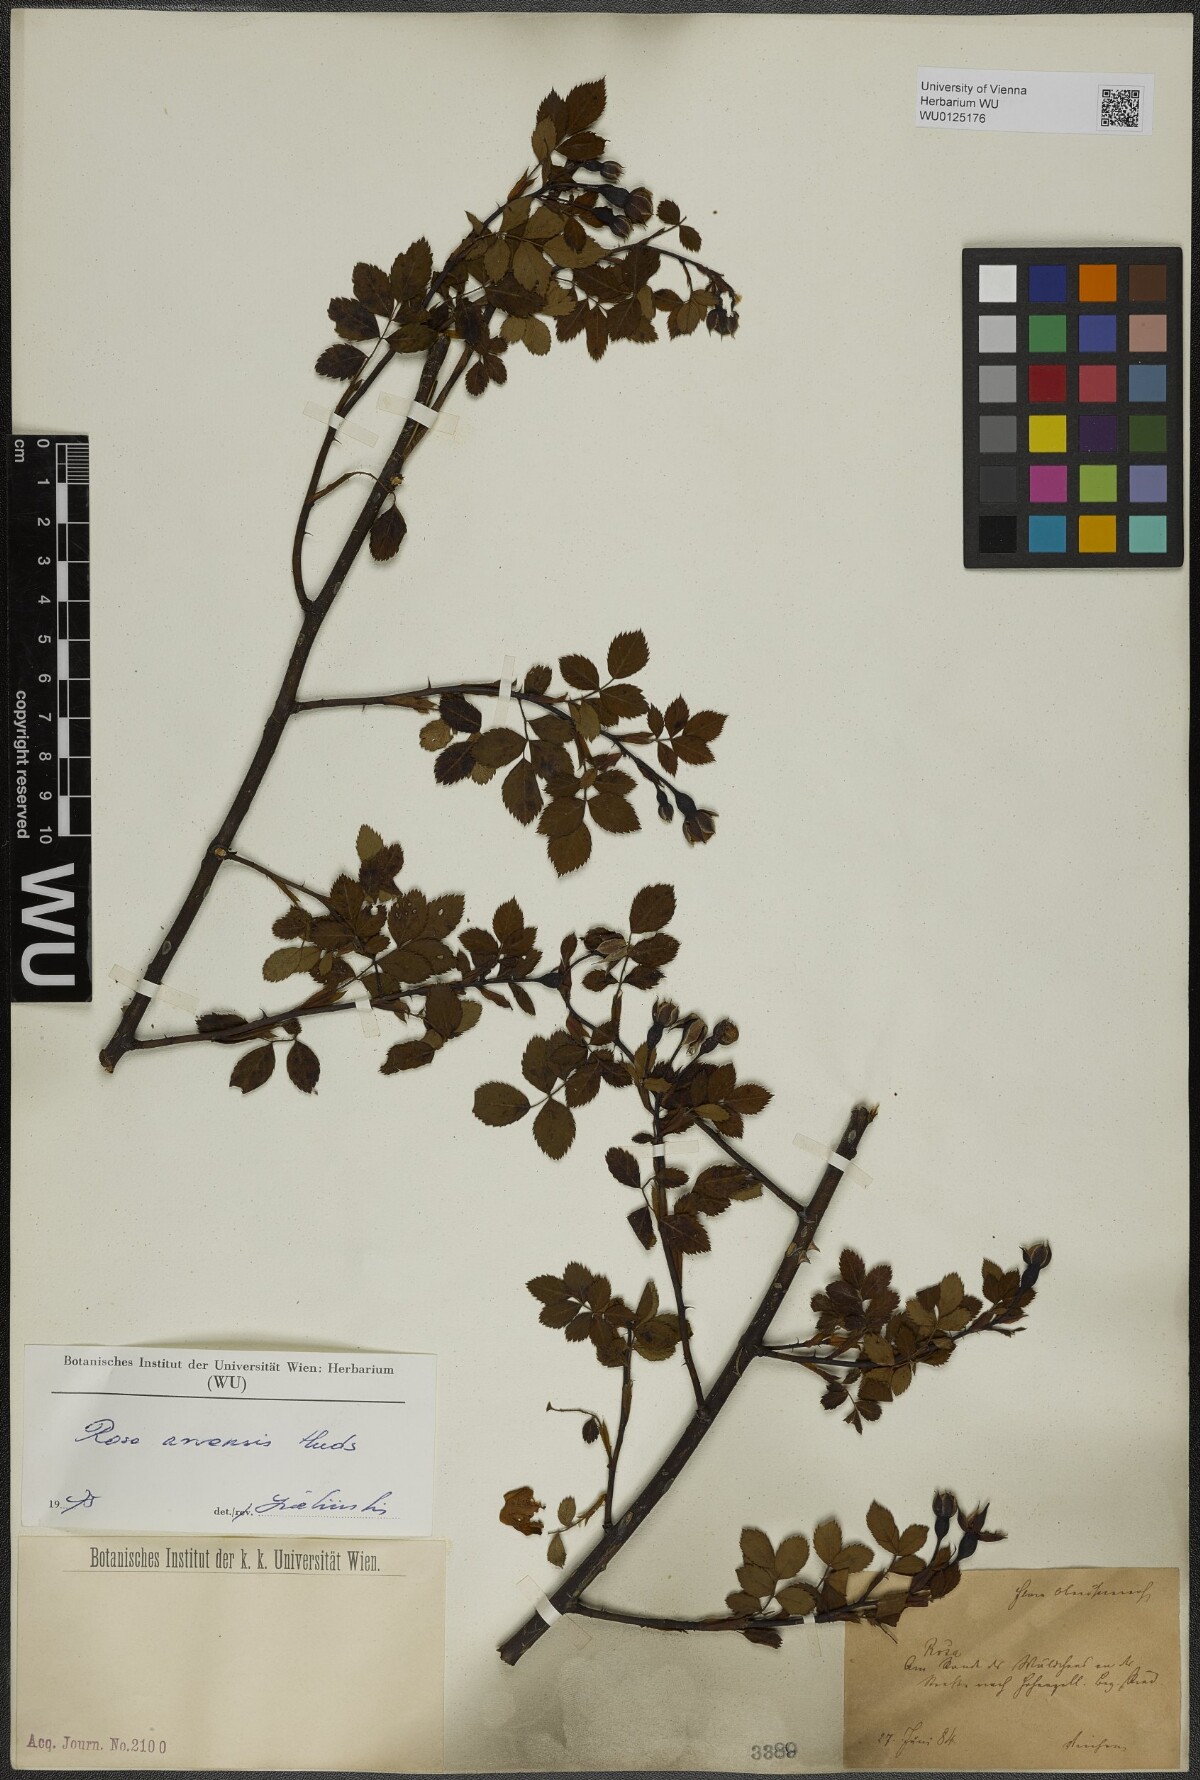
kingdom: Plantae
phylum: Tracheophyta
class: Magnoliopsida
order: Rosales
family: Rosaceae
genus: Rosa
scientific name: Rosa arvensis
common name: Field rose
